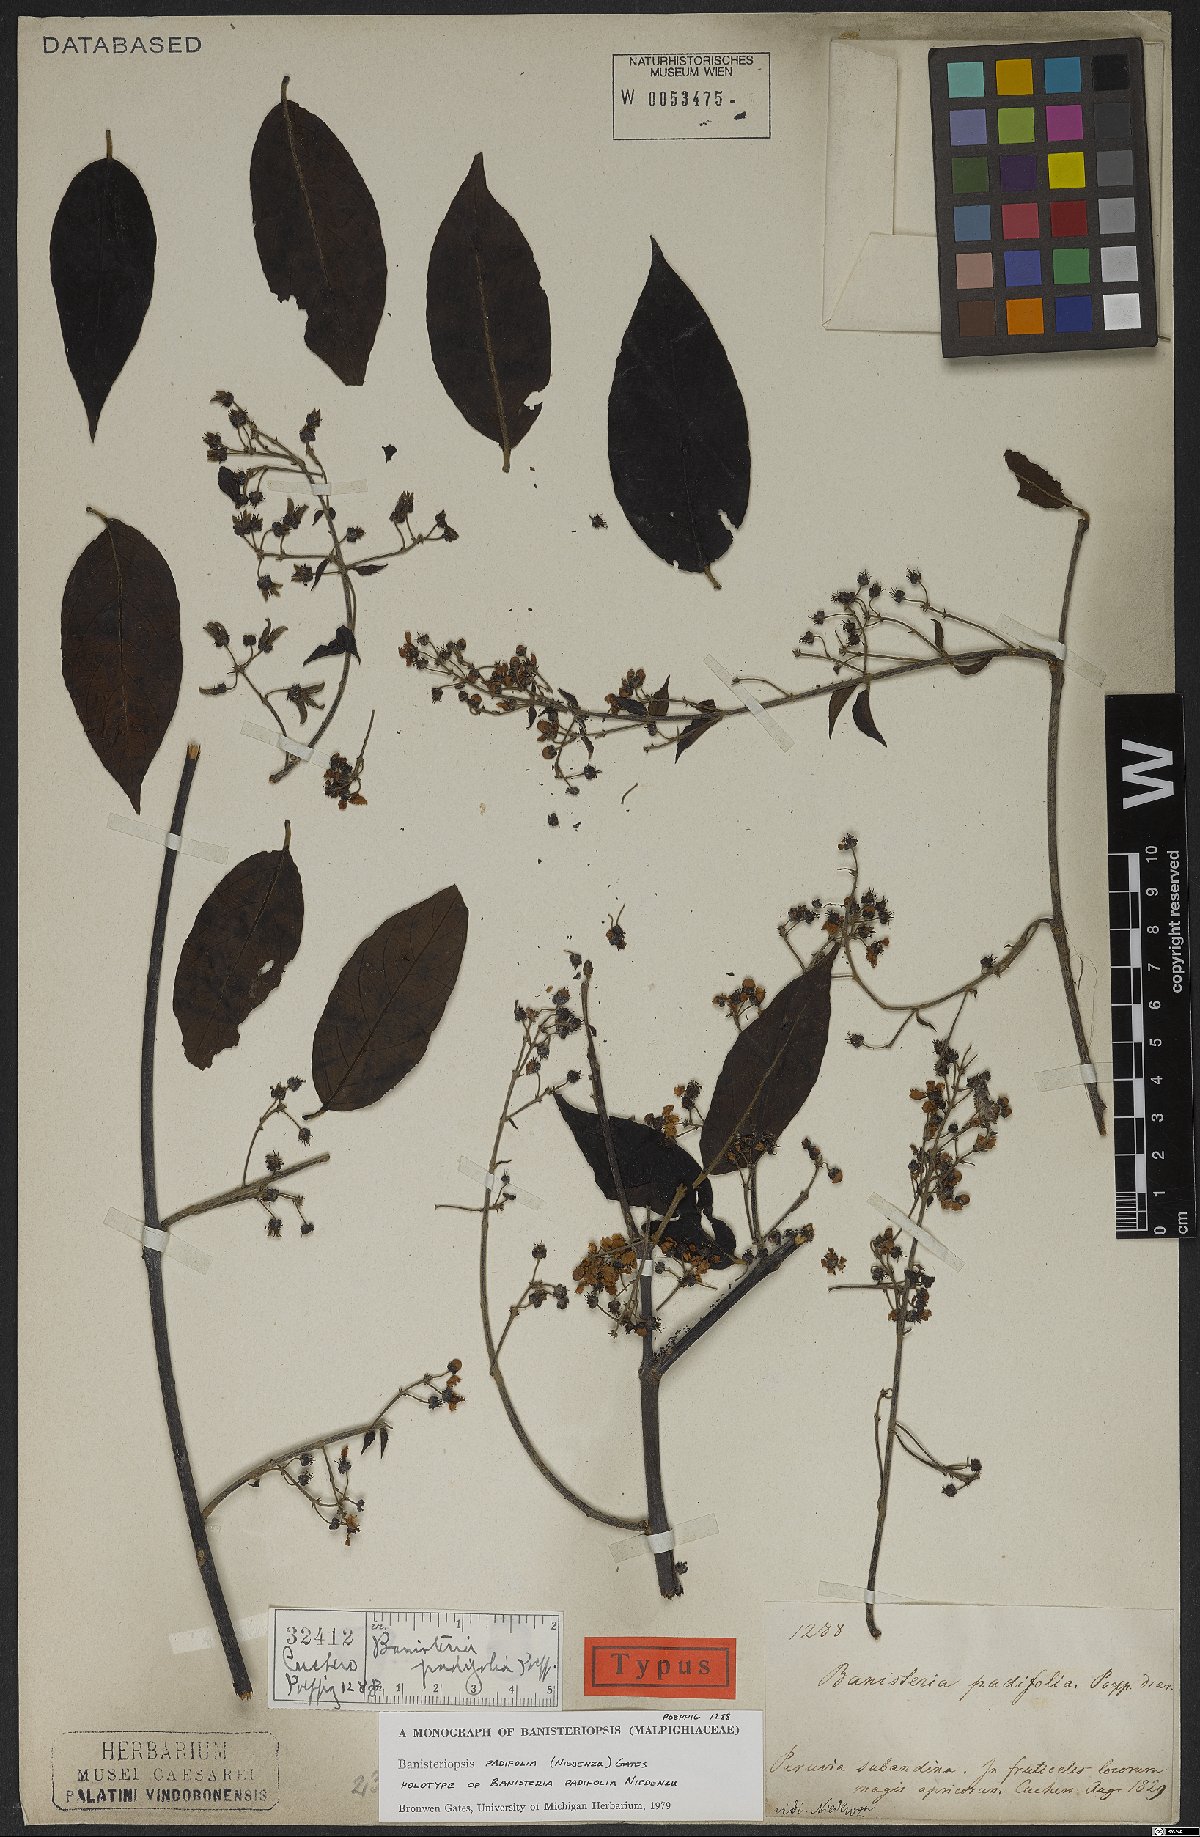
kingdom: Plantae
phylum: Tracheophyta
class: Magnoliopsida
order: Malpighiales
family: Malpighiaceae
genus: Banisteriopsis
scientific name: Banisteriopsis padifolia
